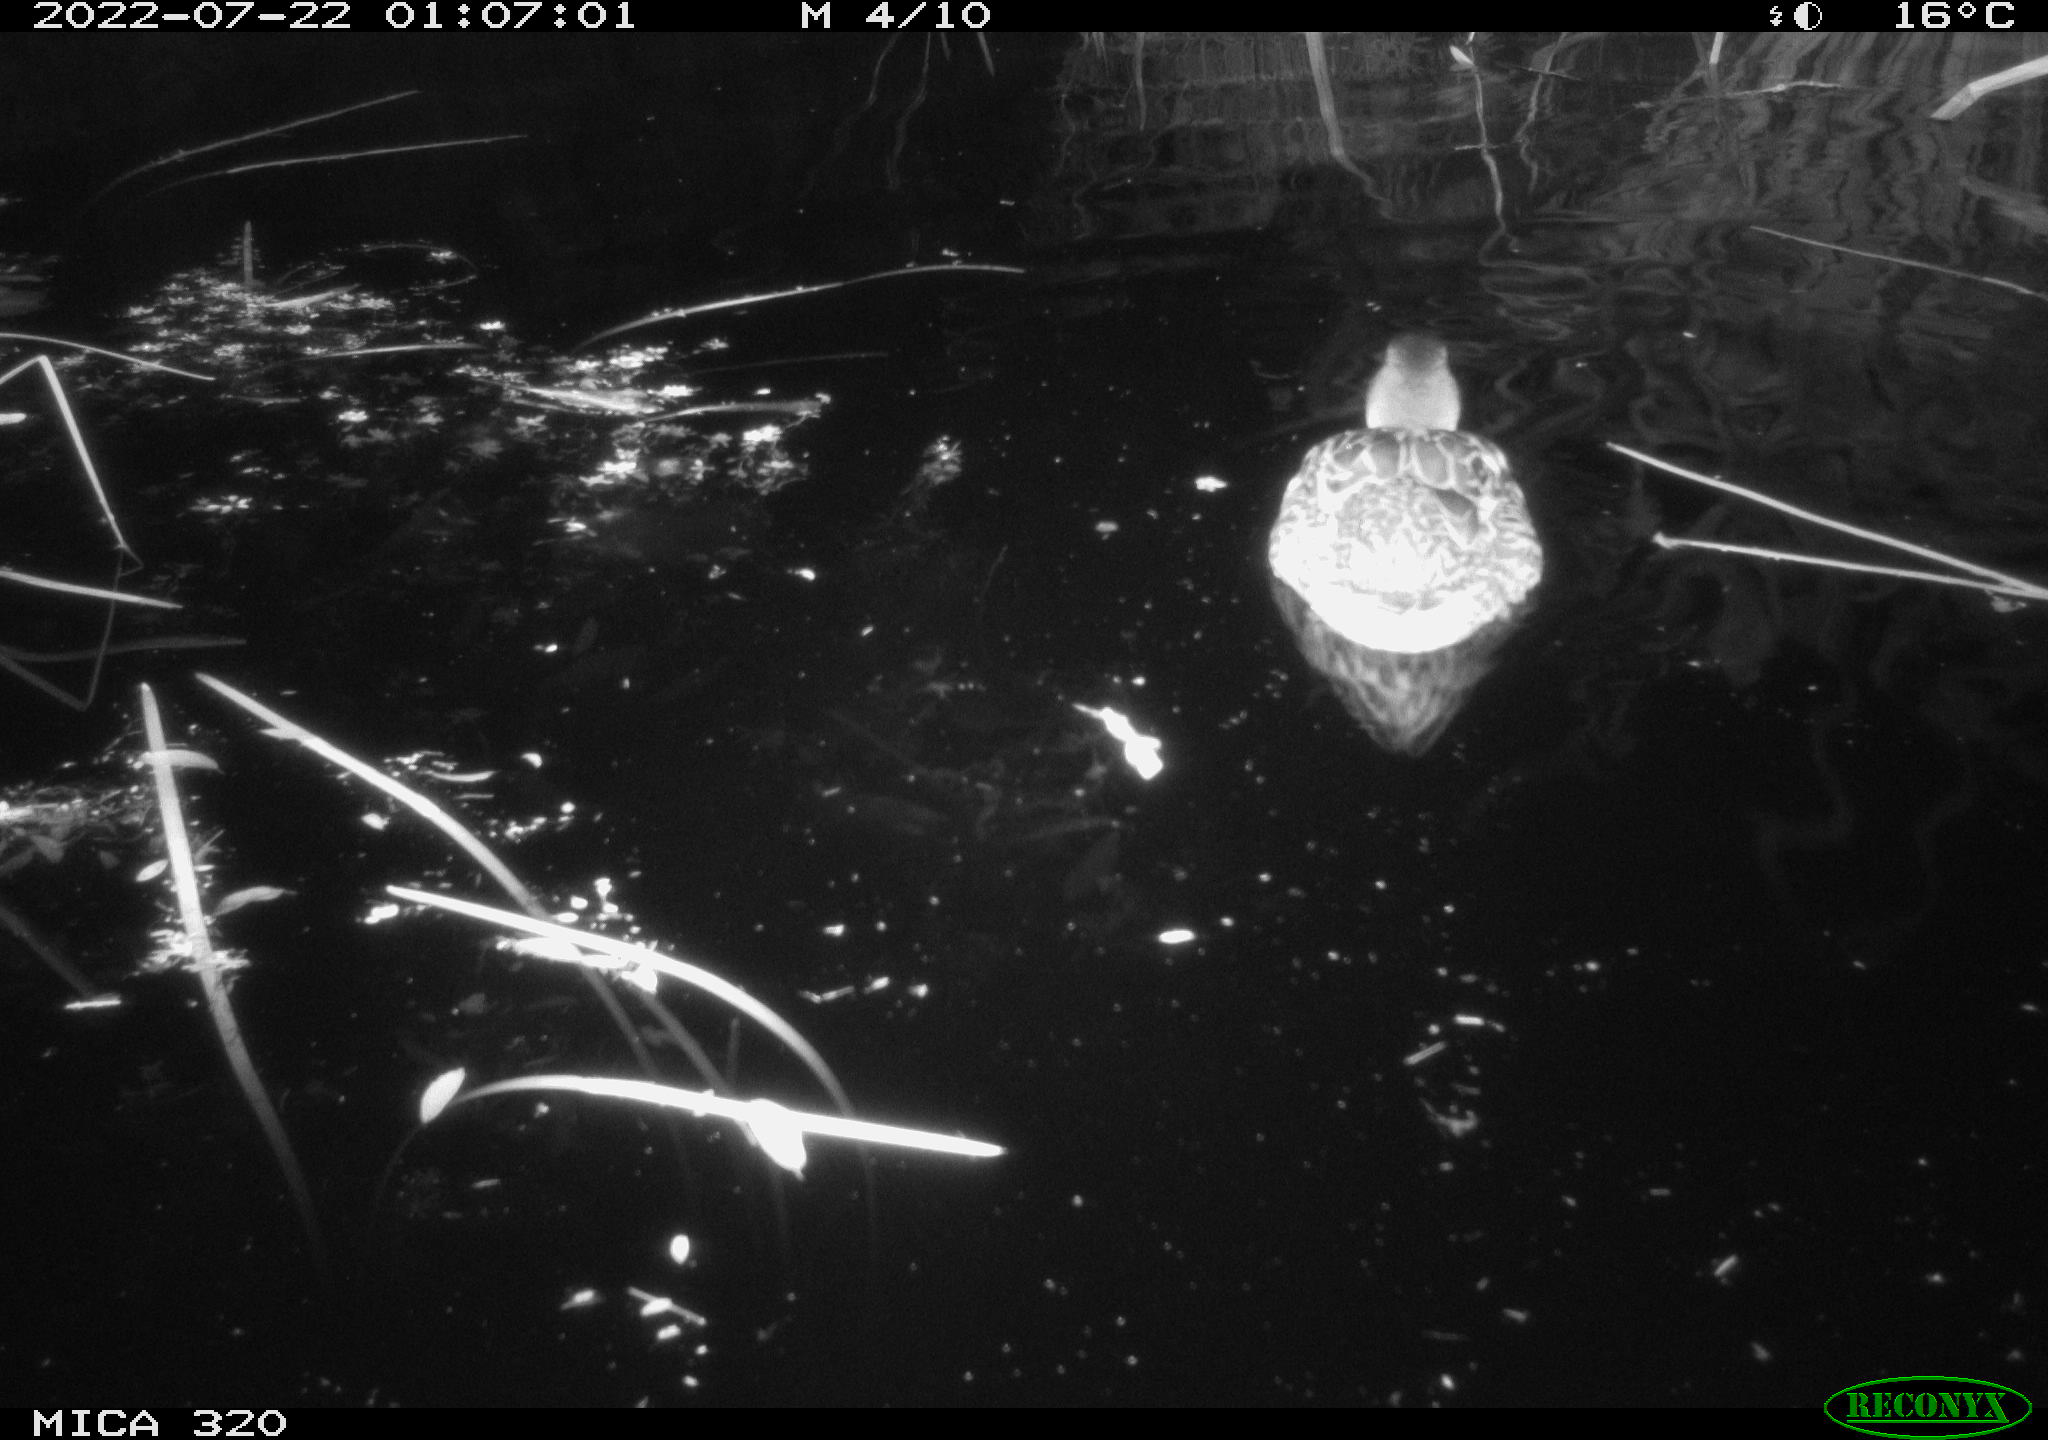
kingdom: Animalia
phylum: Chordata
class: Aves
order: Anseriformes
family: Anatidae
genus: Mareca
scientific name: Mareca strepera
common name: Gadwall
